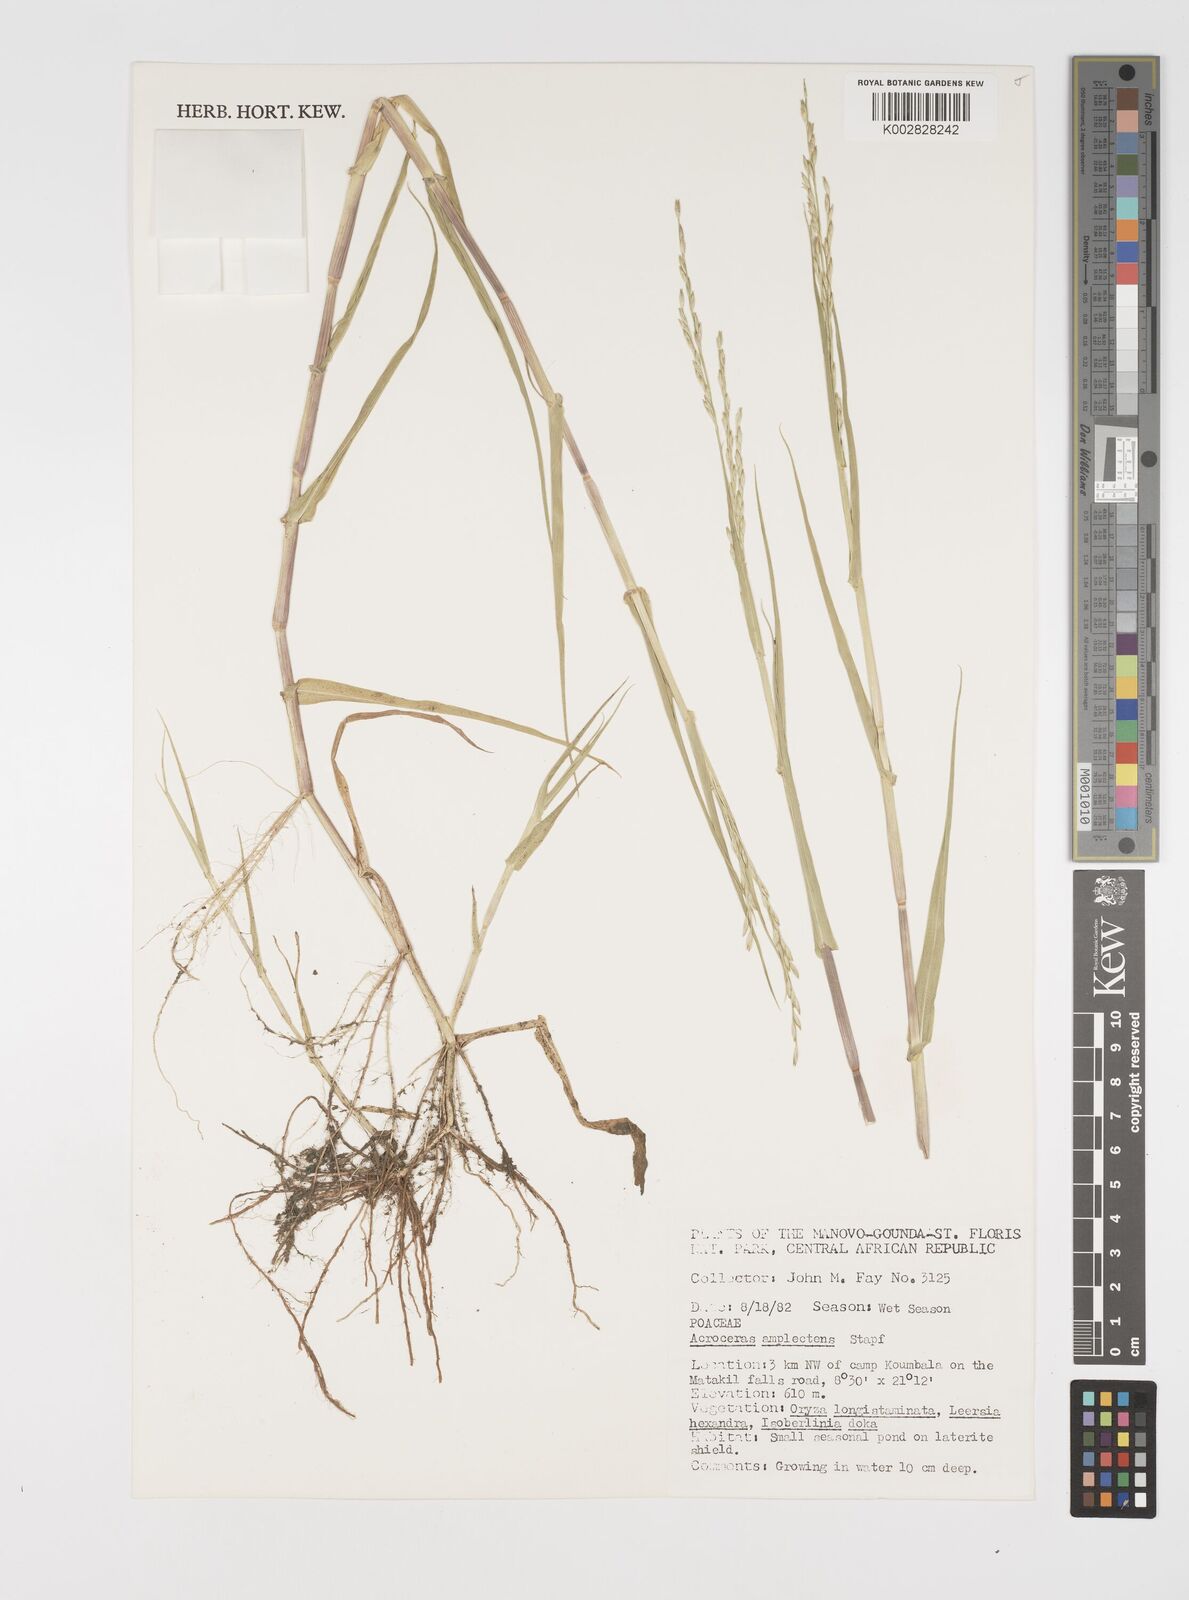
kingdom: Plantae
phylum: Tracheophyta
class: Liliopsida
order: Poales
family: Poaceae
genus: Acroceras
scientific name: Acroceras amplectens
